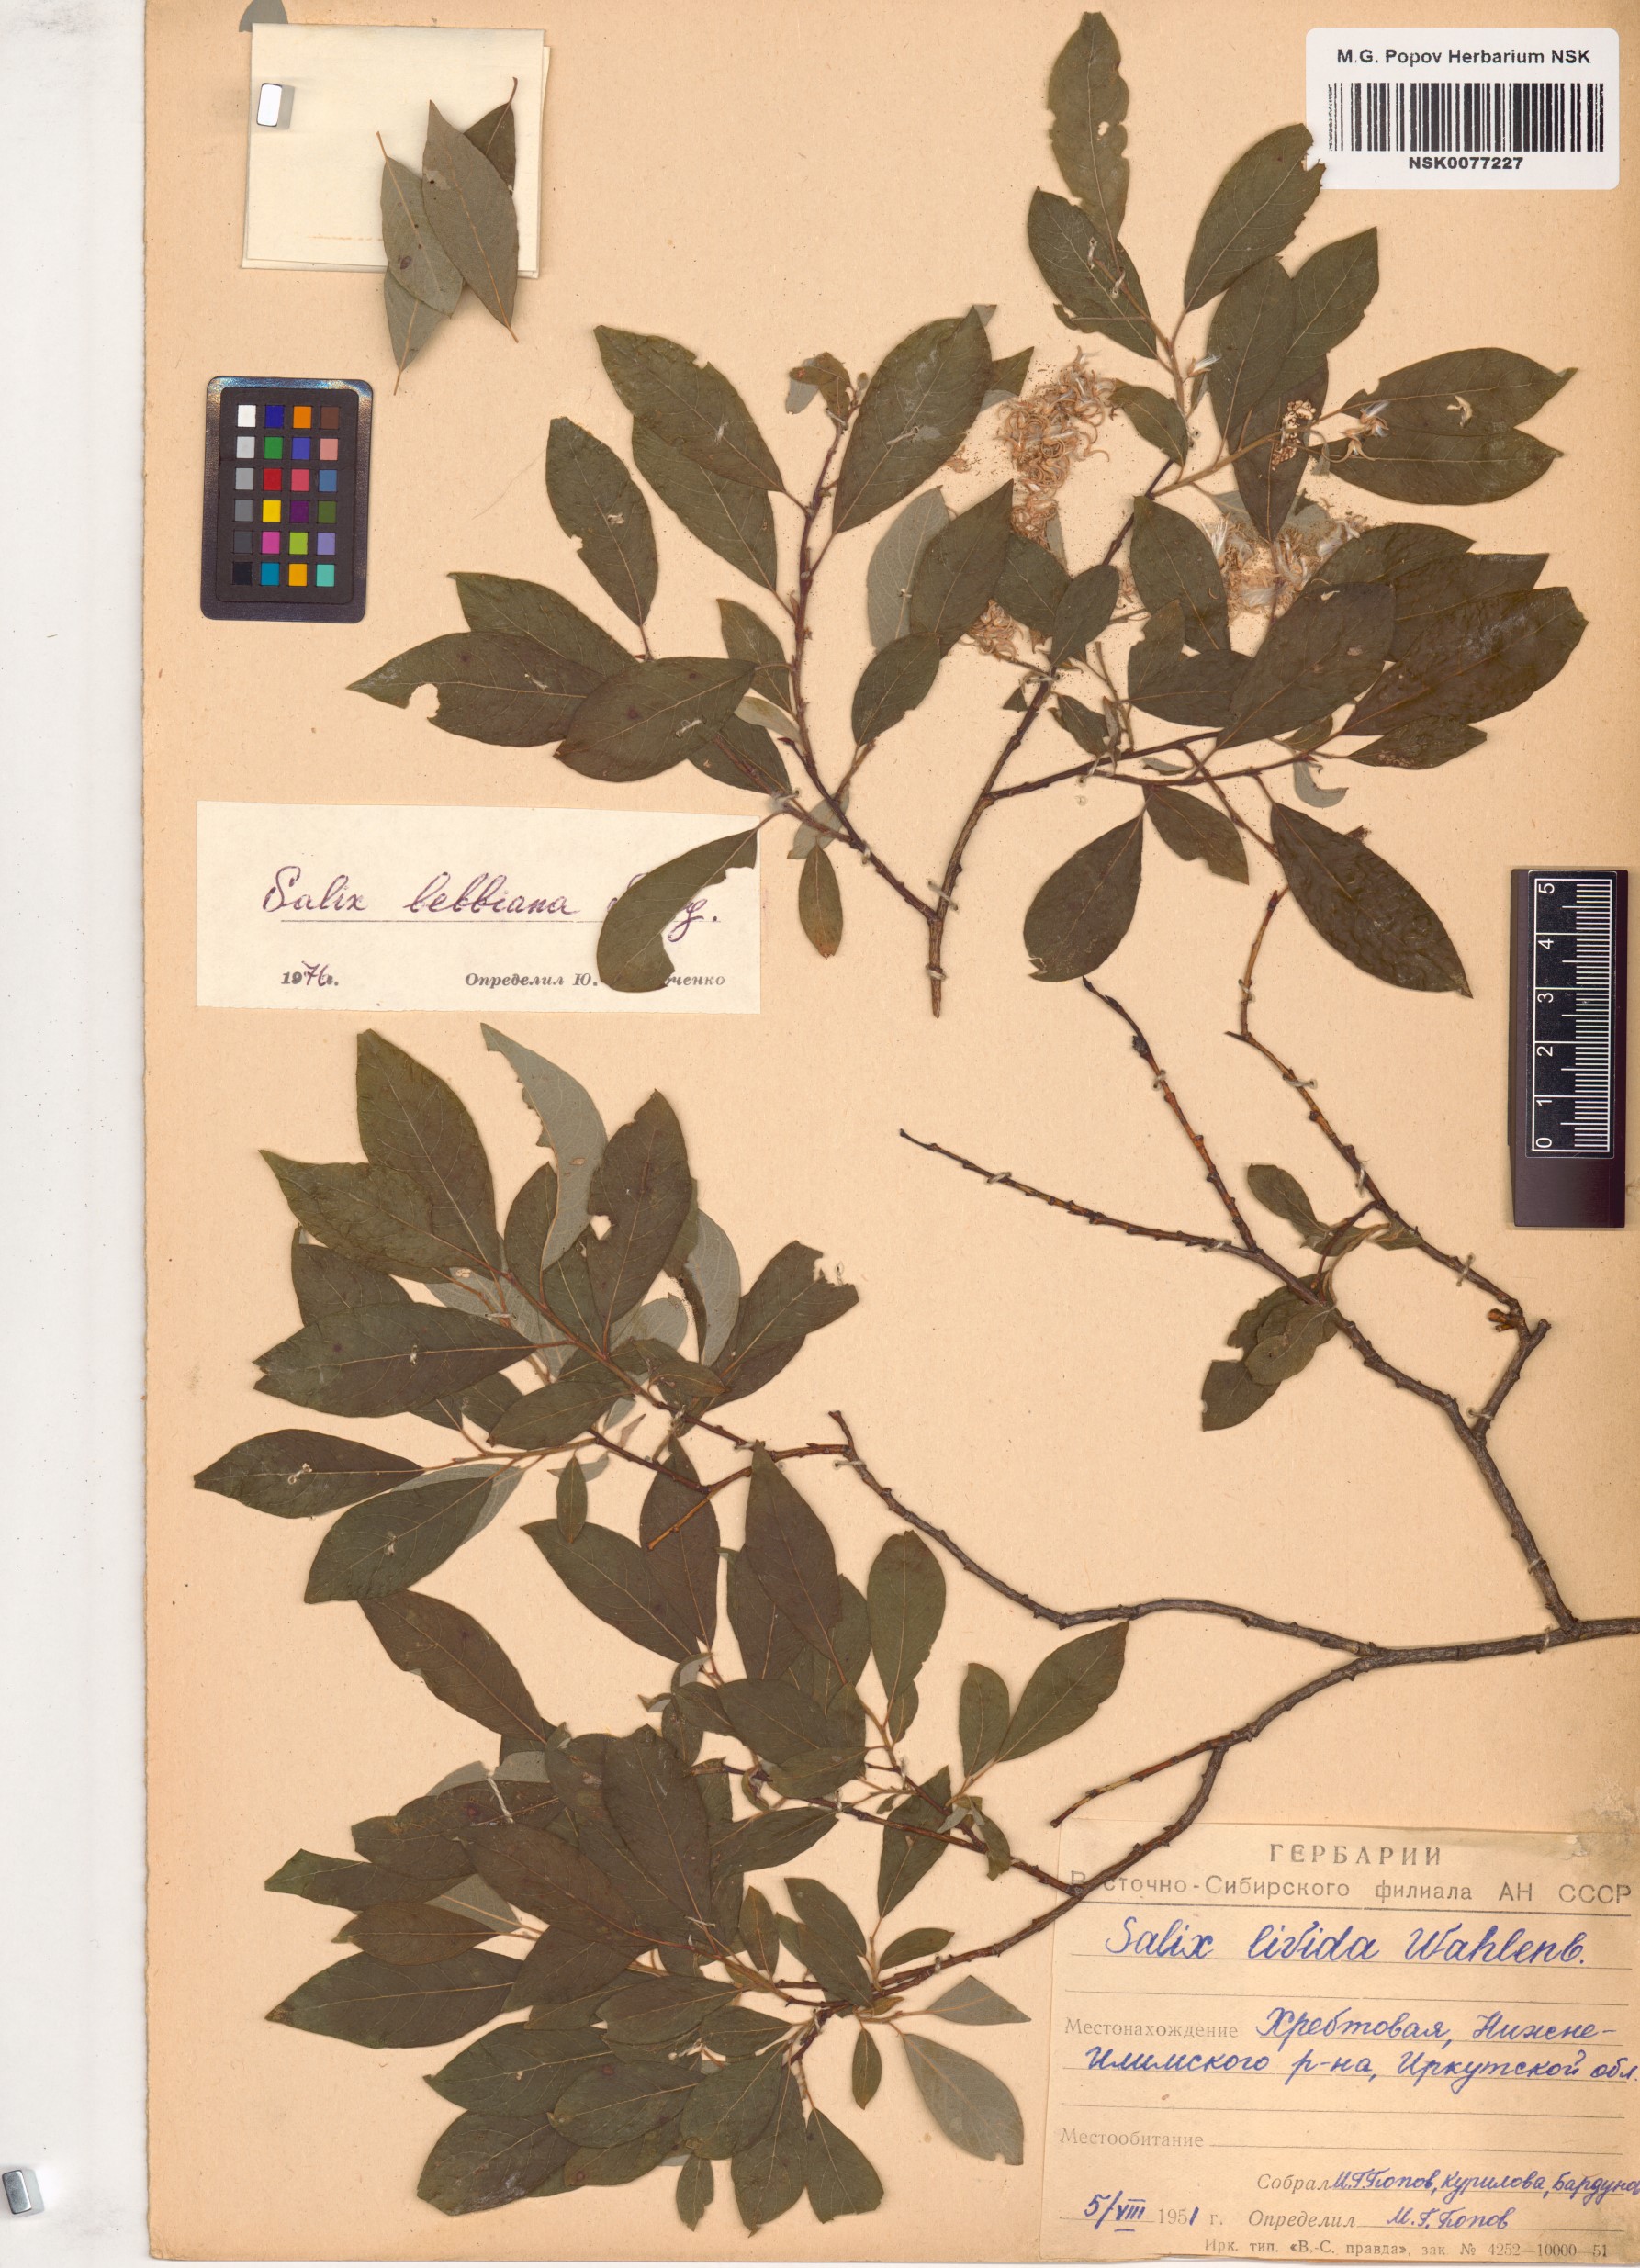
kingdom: Plantae
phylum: Tracheophyta
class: Magnoliopsida
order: Malpighiales
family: Salicaceae
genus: Salix
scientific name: Salix bebbiana
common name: Bebb's willow
